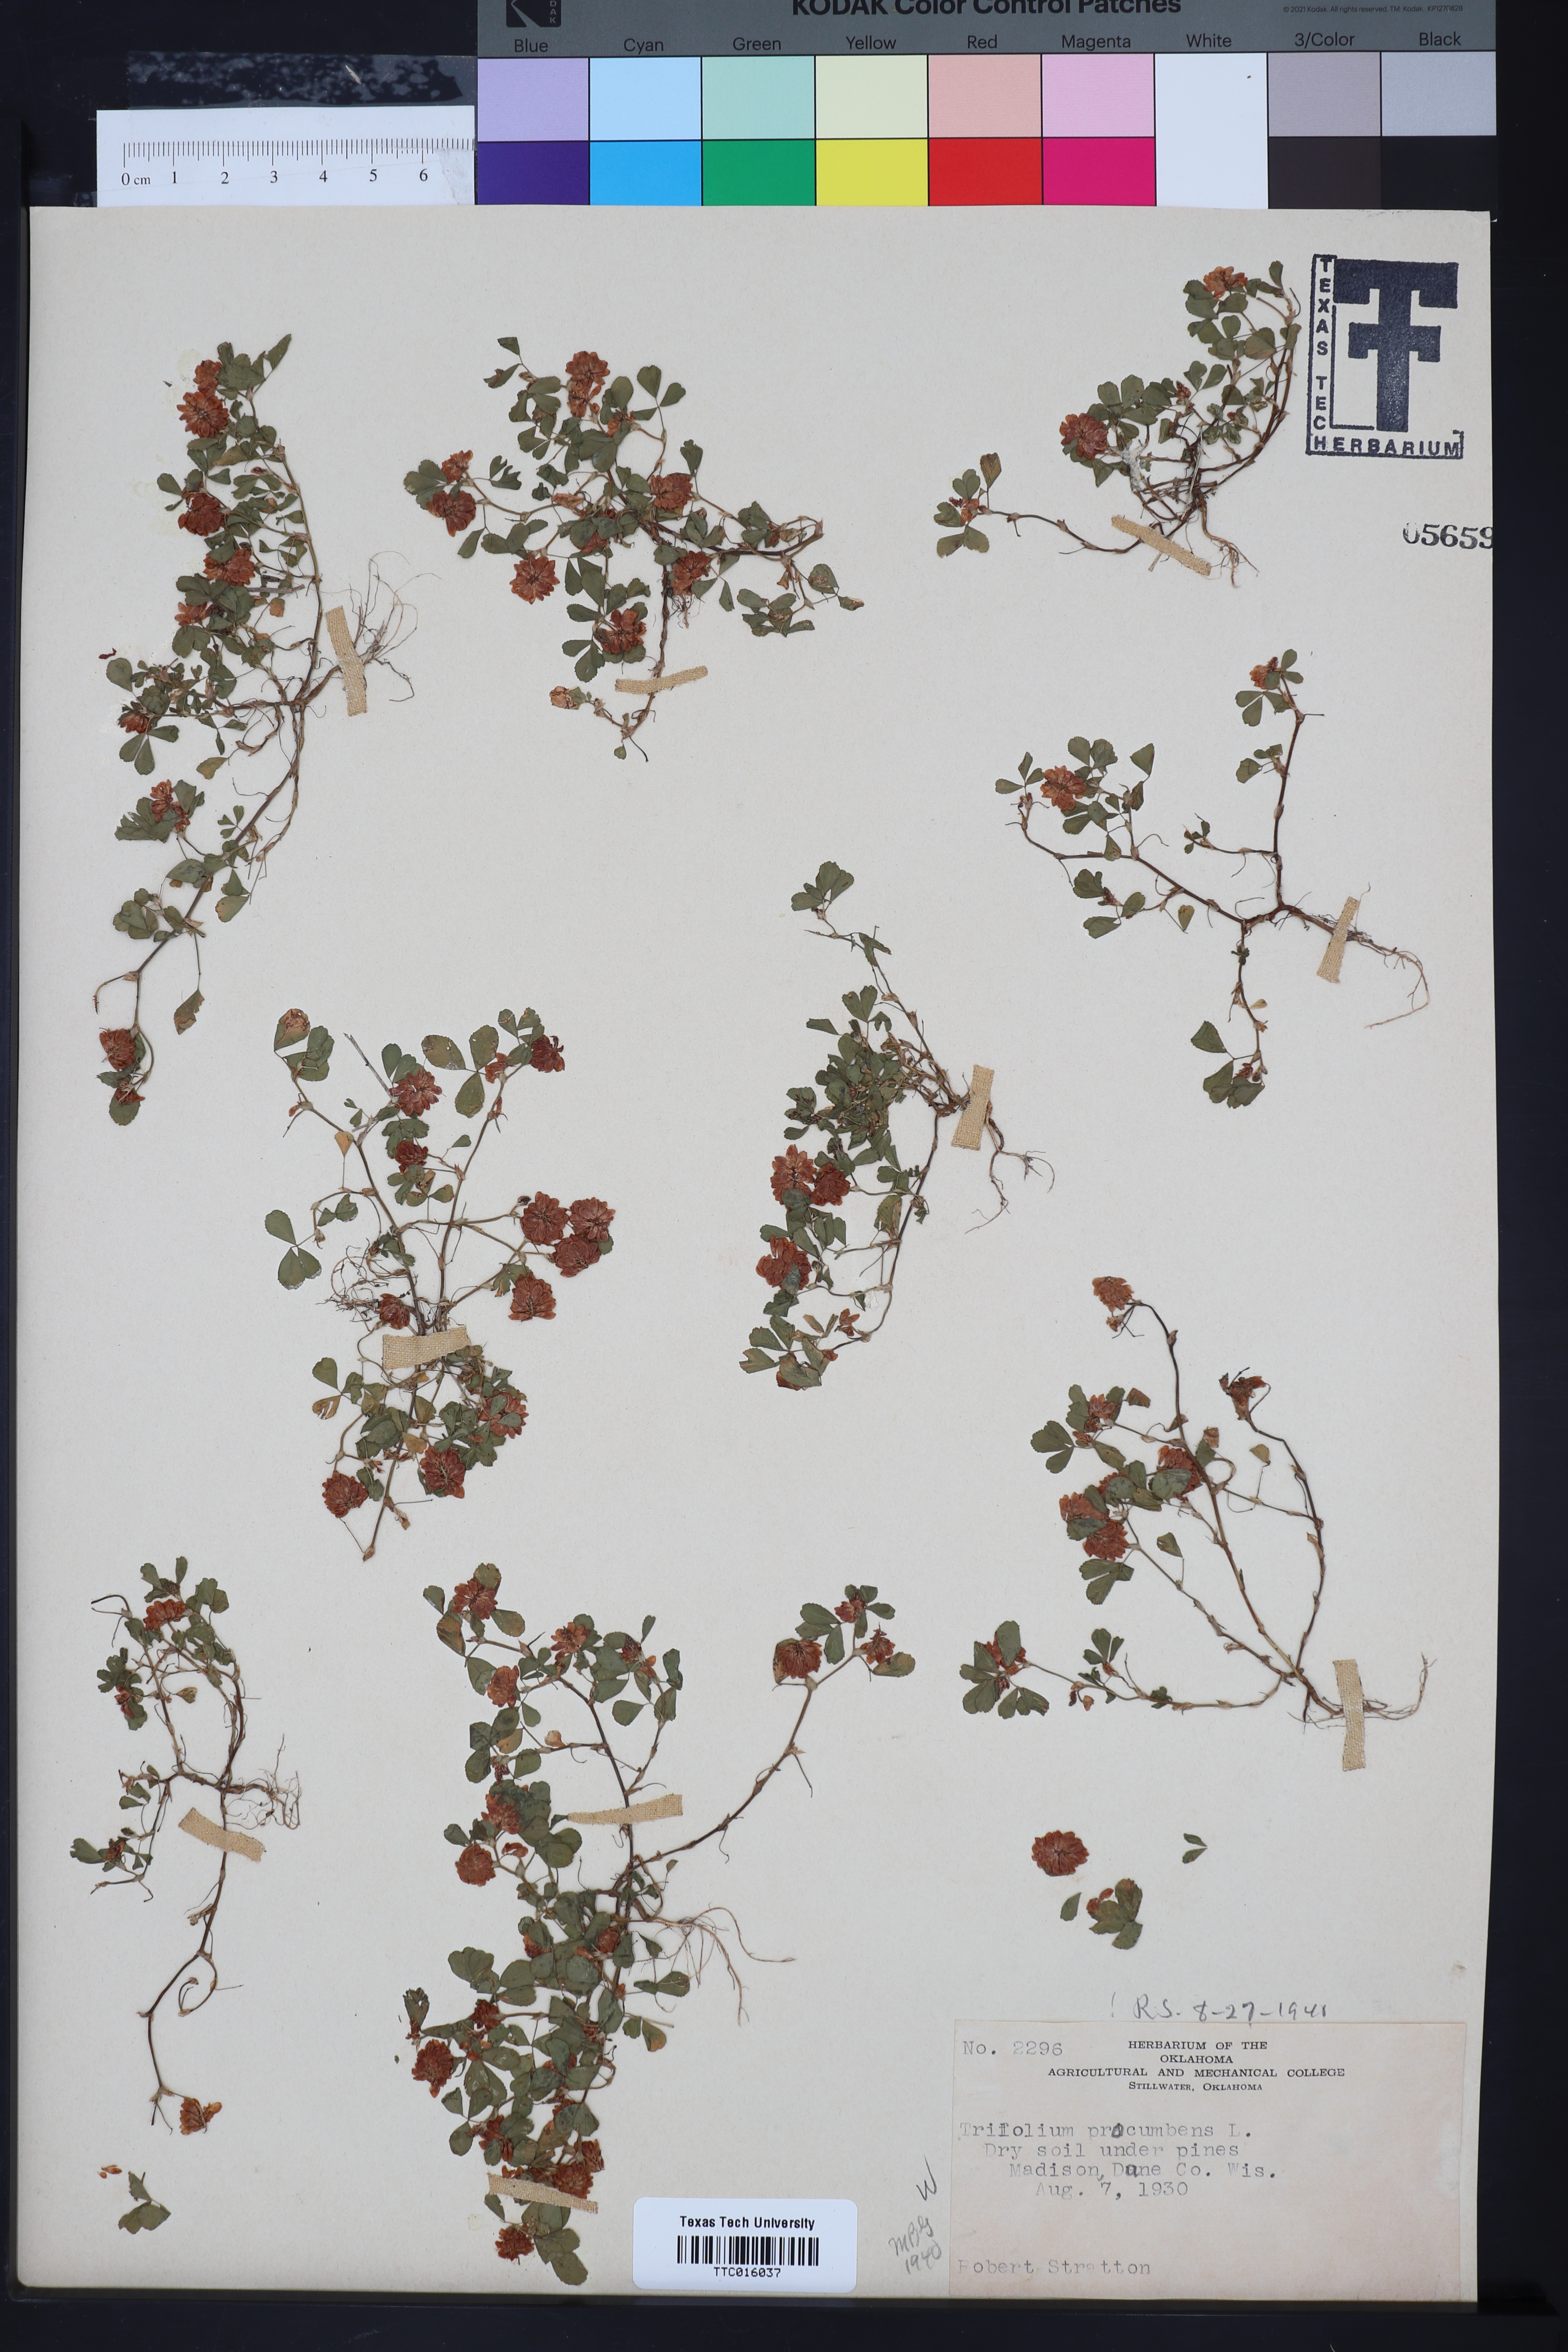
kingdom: Plantae
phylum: Tracheophyta
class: Magnoliopsida
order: Fabales
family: Fabaceae
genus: Trifolium
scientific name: Trifolium campestre
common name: Field clover
